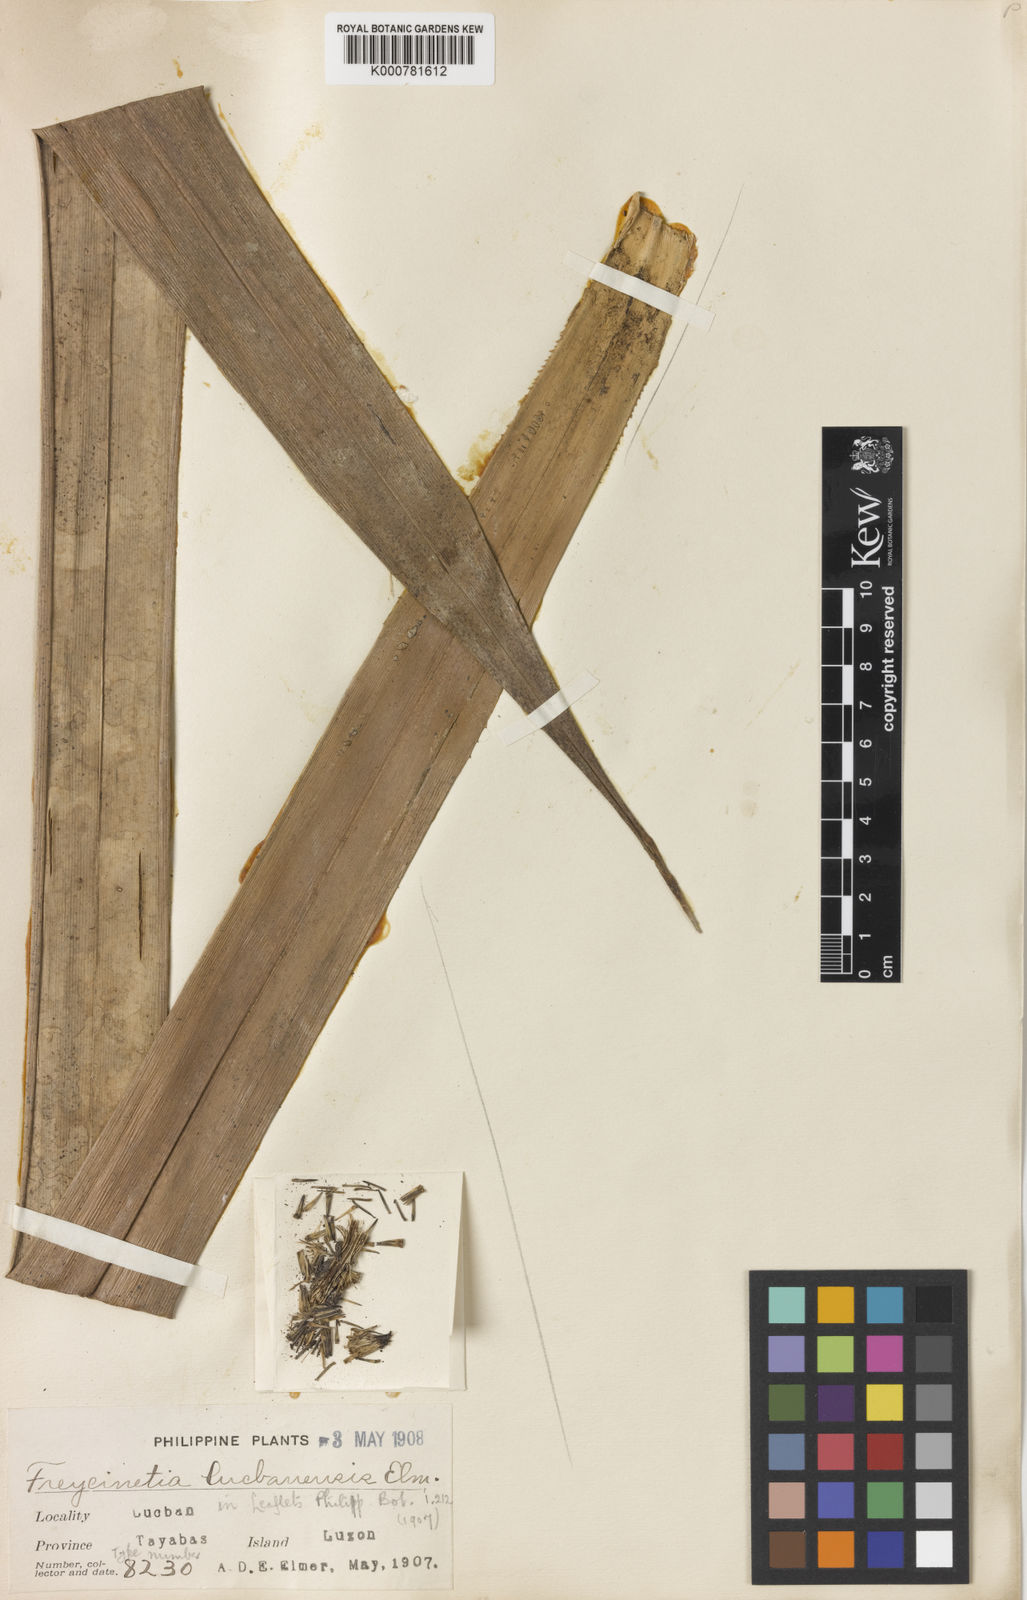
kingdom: Plantae
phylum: Tracheophyta
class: Liliopsida
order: Pandanales
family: Pandanaceae
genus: Freycinetia
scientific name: Freycinetia lucbanensis
